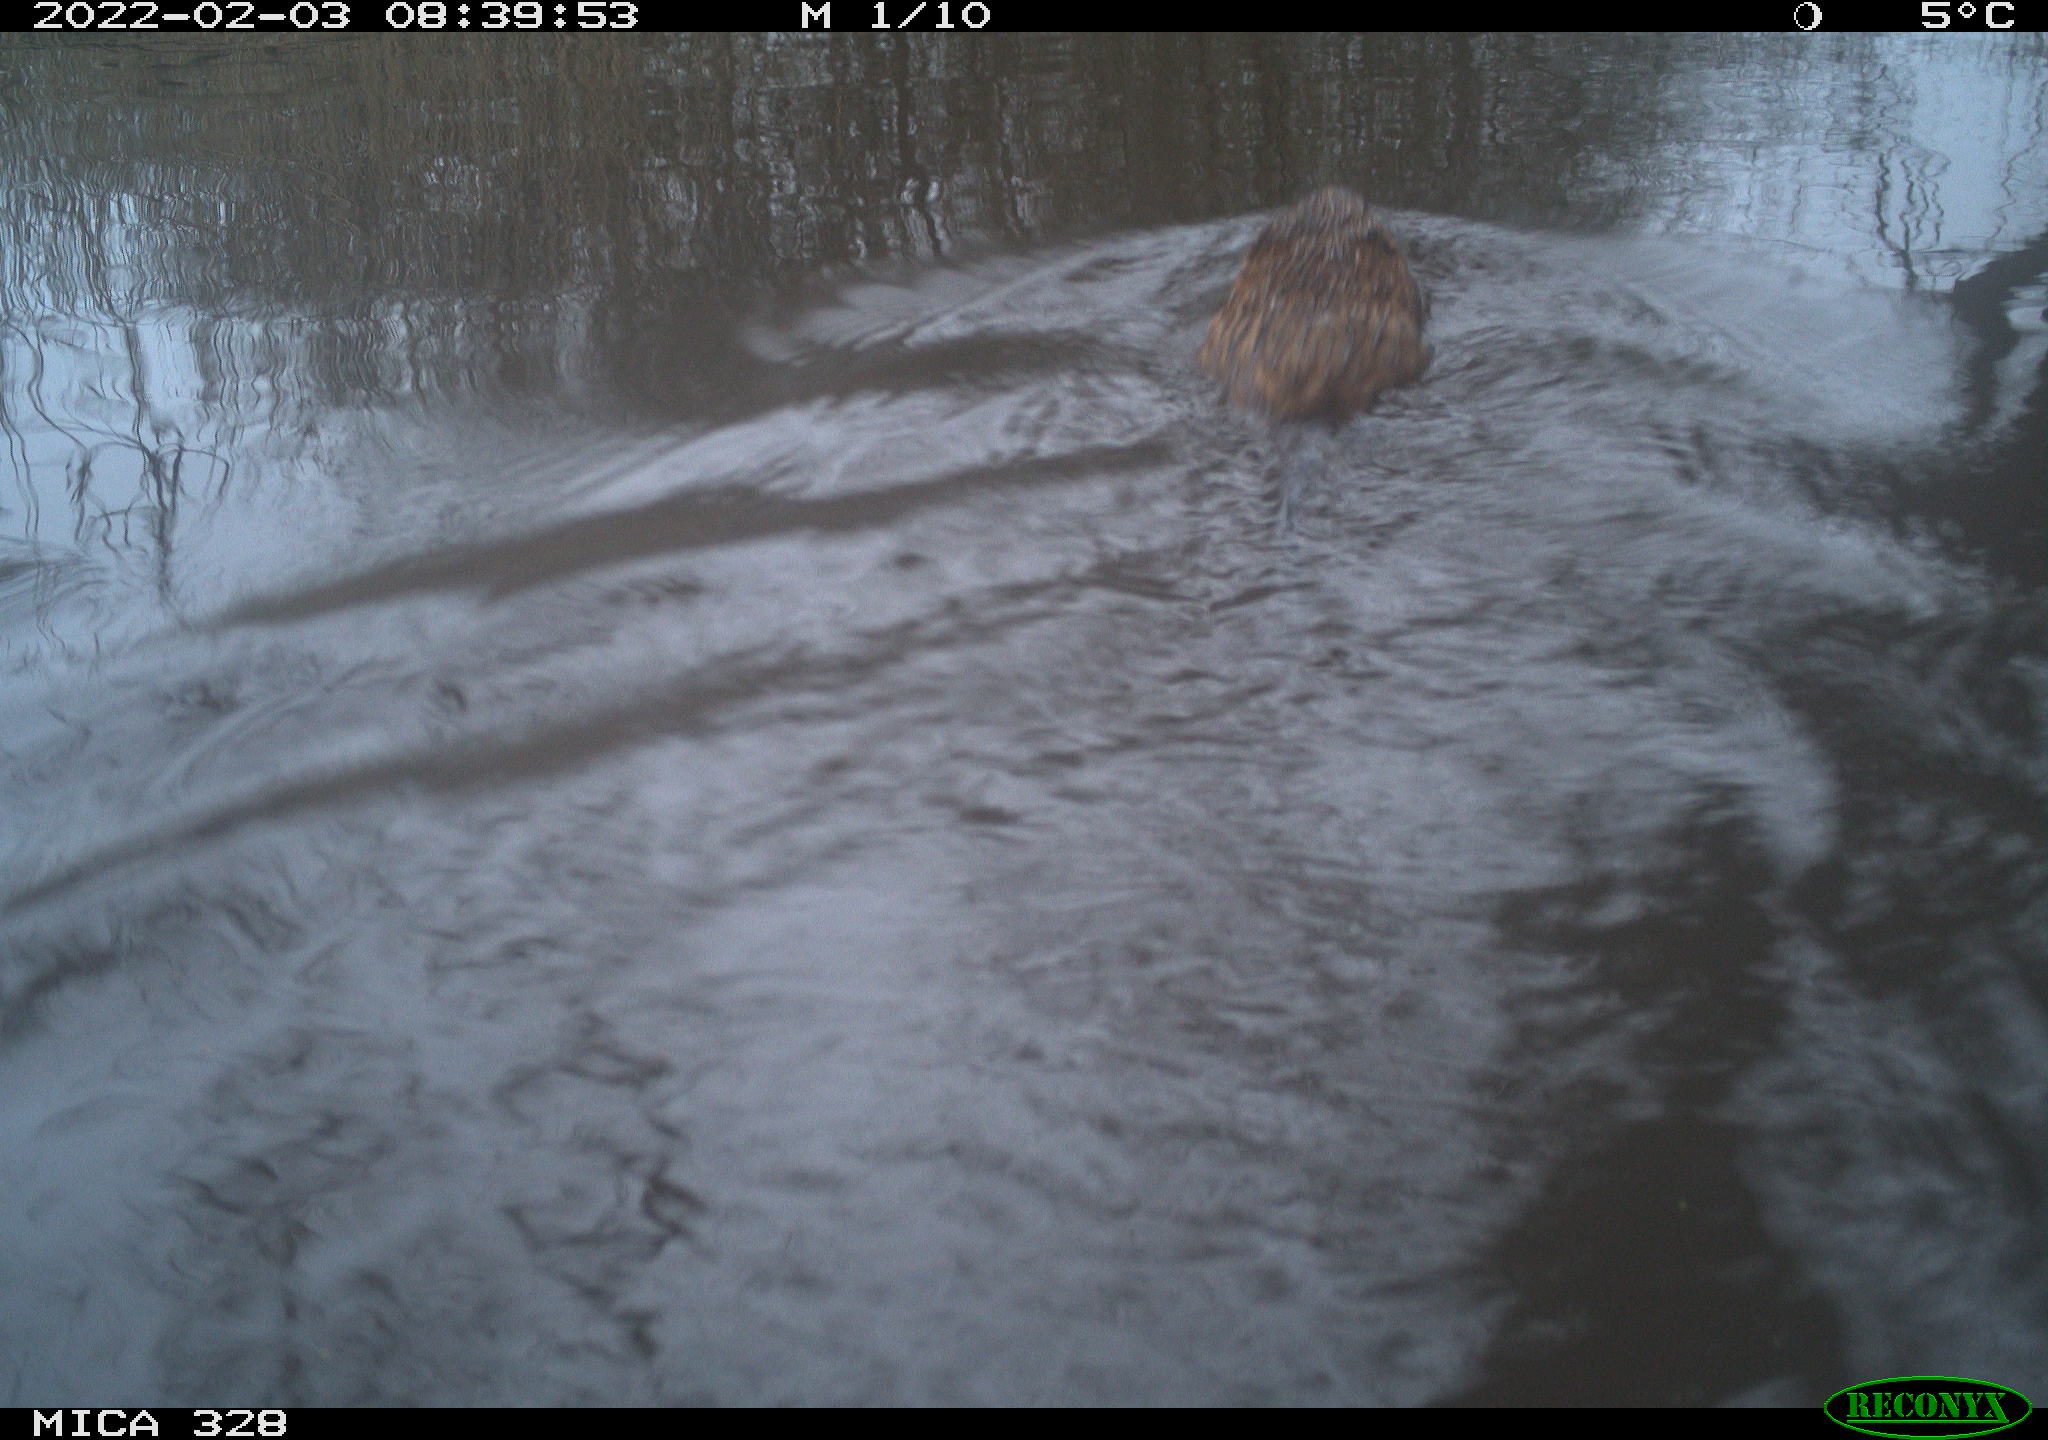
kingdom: Animalia
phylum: Chordata
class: Mammalia
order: Rodentia
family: Cricetidae
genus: Ondatra
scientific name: Ondatra zibethicus
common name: Muskrat
